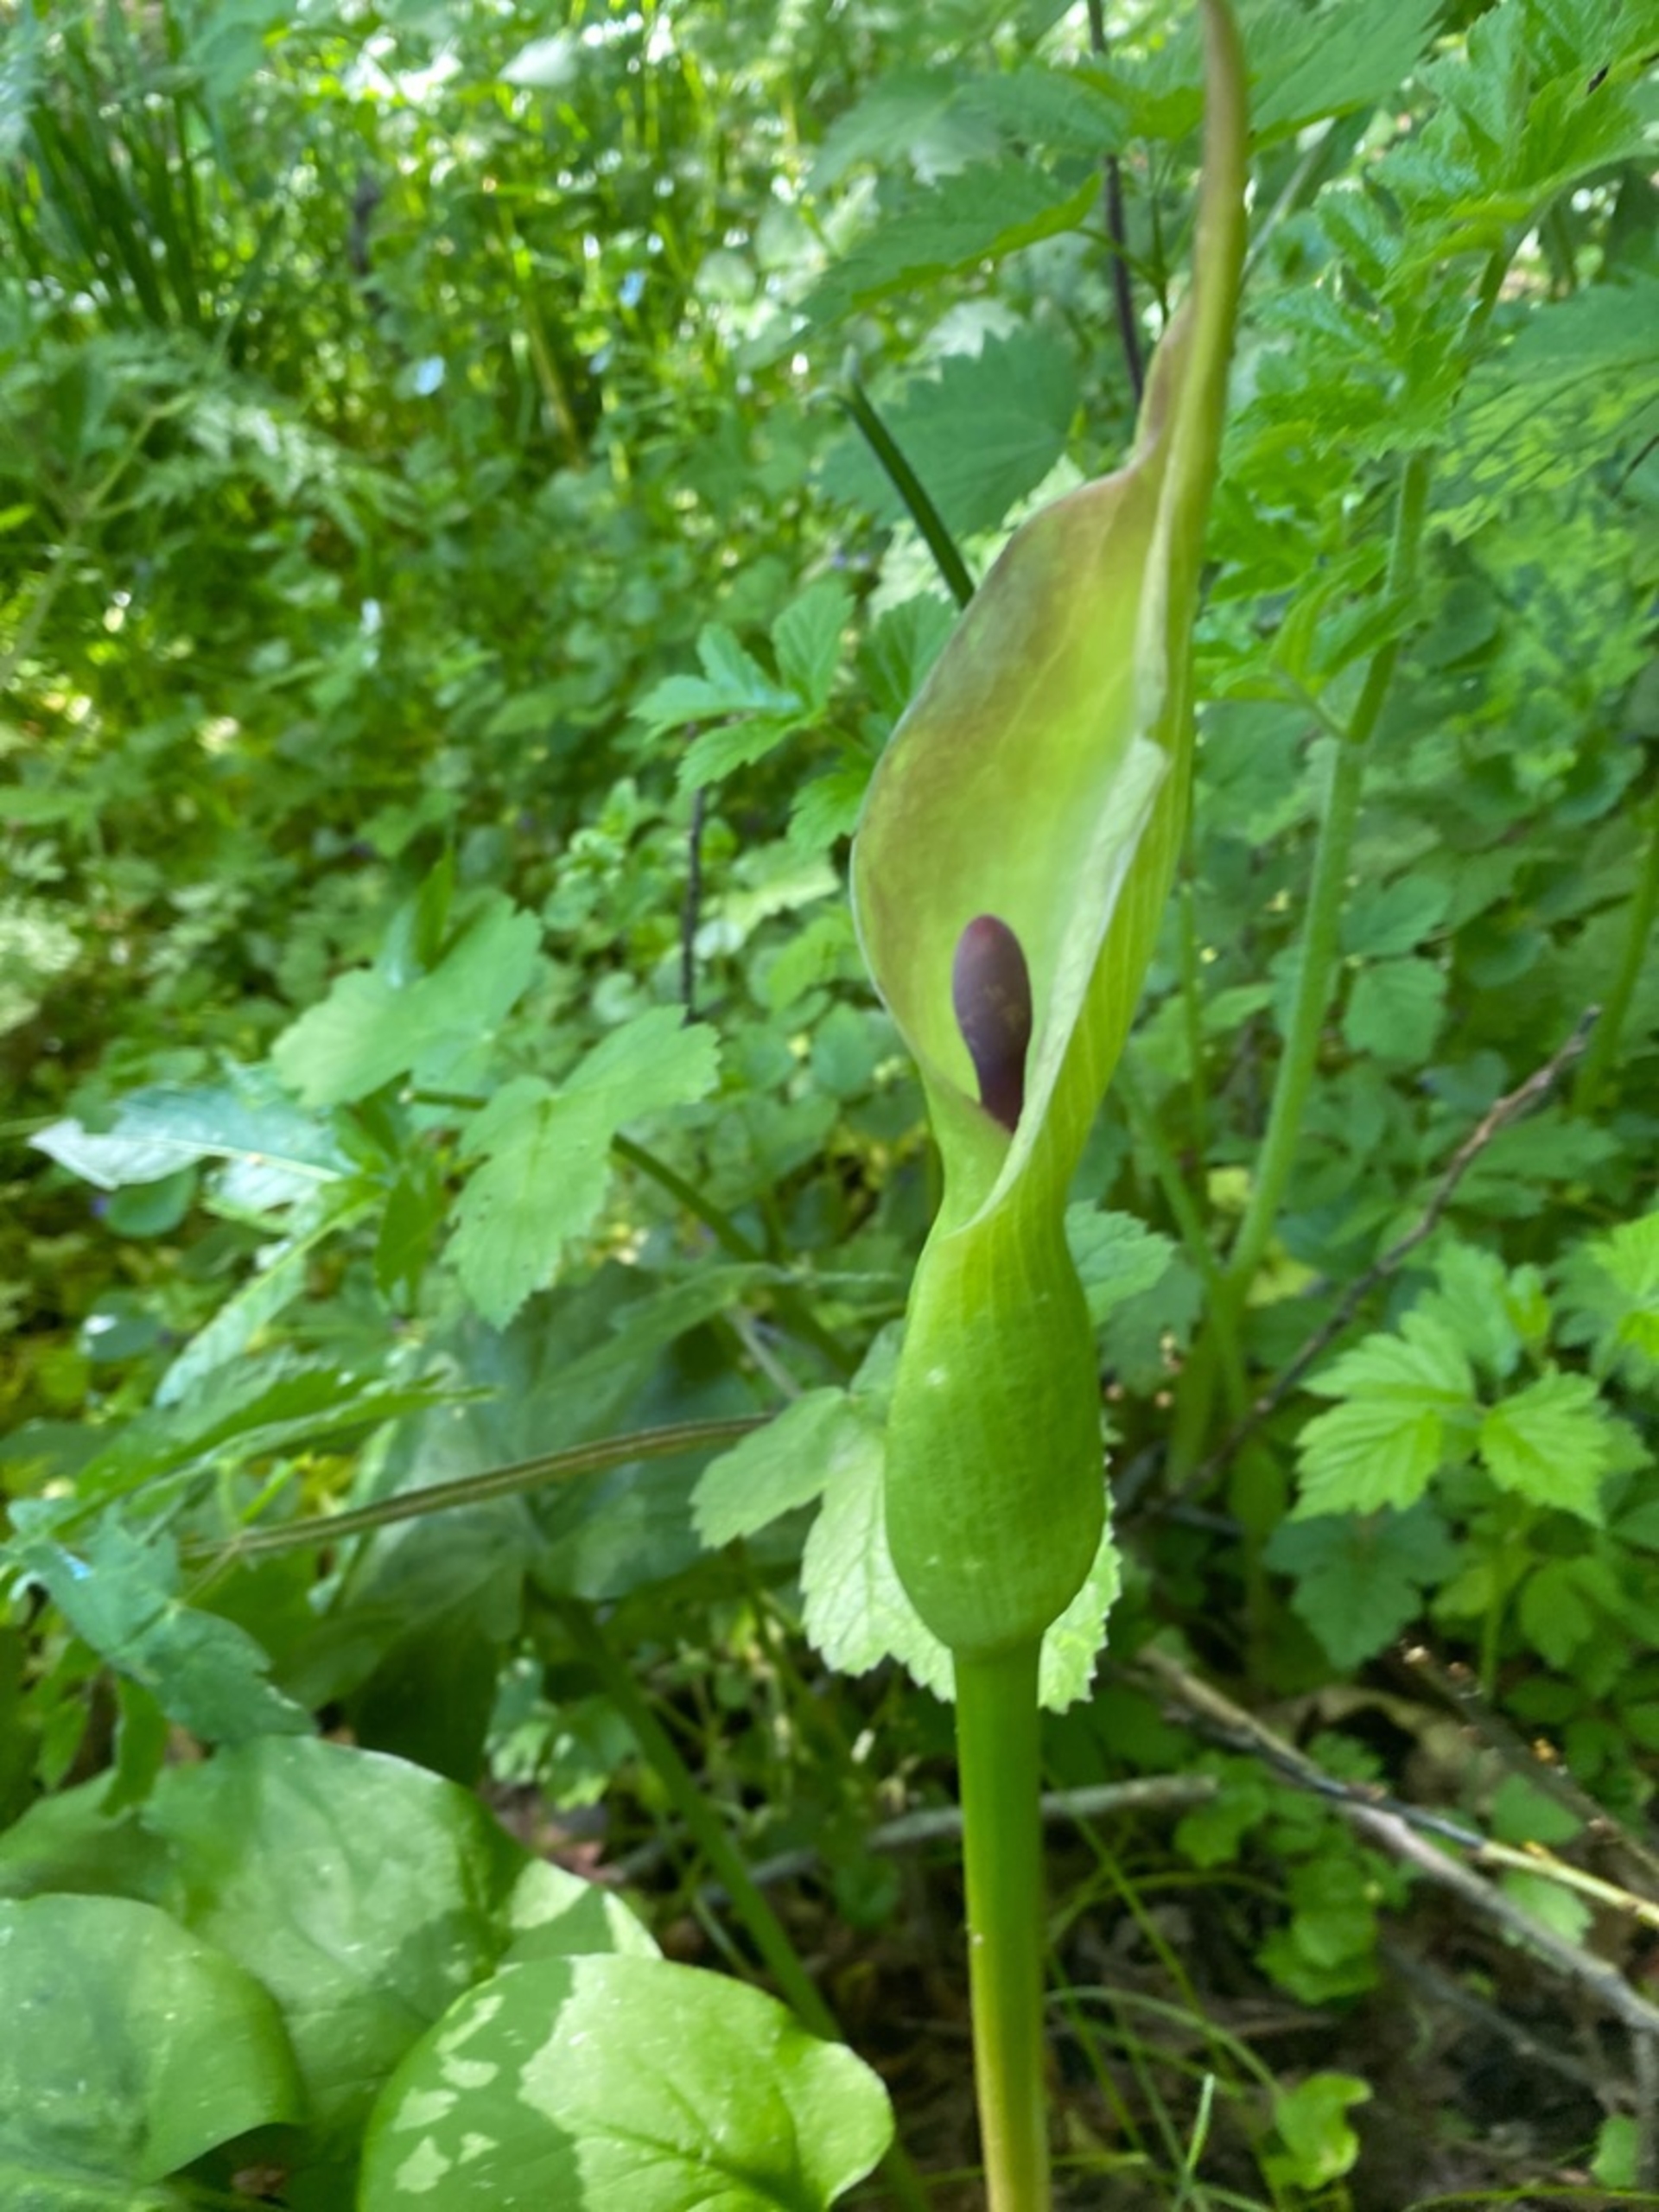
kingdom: Plantae
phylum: Tracheophyta
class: Liliopsida
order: Alismatales
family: Araceae
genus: Arum
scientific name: Arum maculatum
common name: Plettet arum
